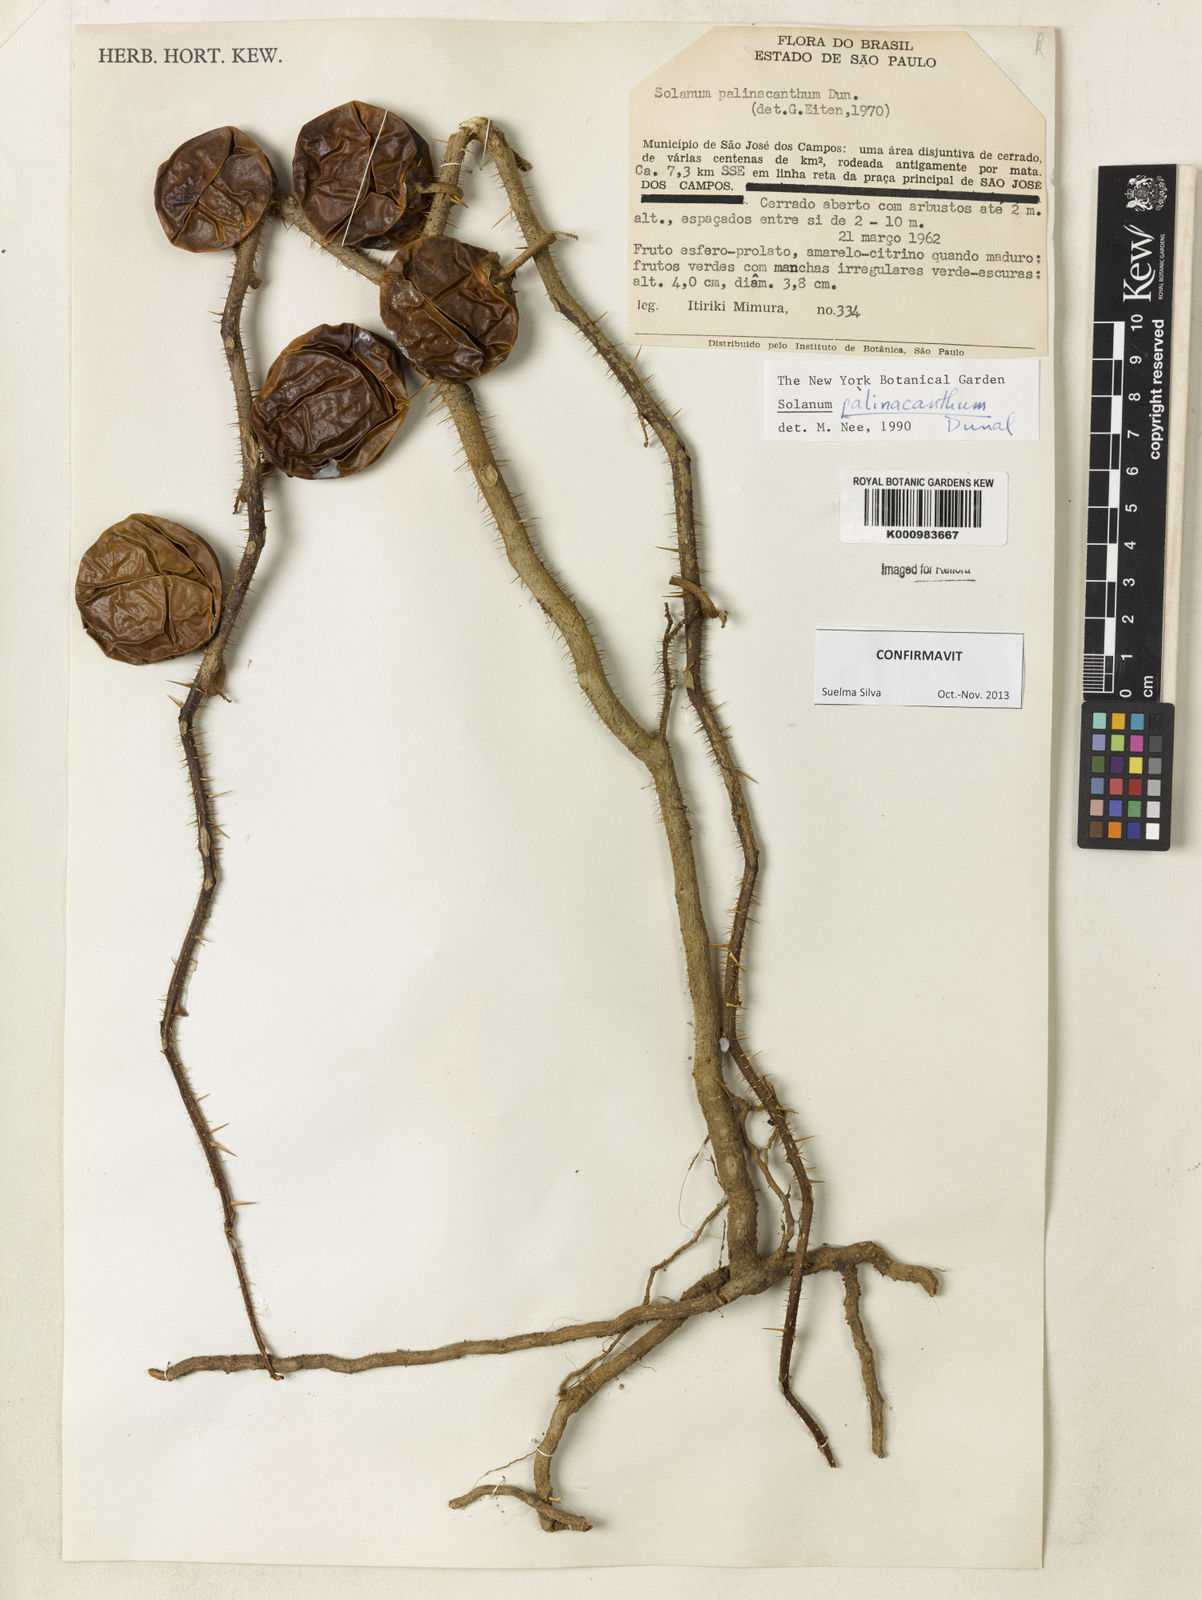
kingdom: Plantae
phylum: Tracheophyta
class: Magnoliopsida
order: Solanales
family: Solanaceae
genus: Solanum
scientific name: Solanum palinacanthum
